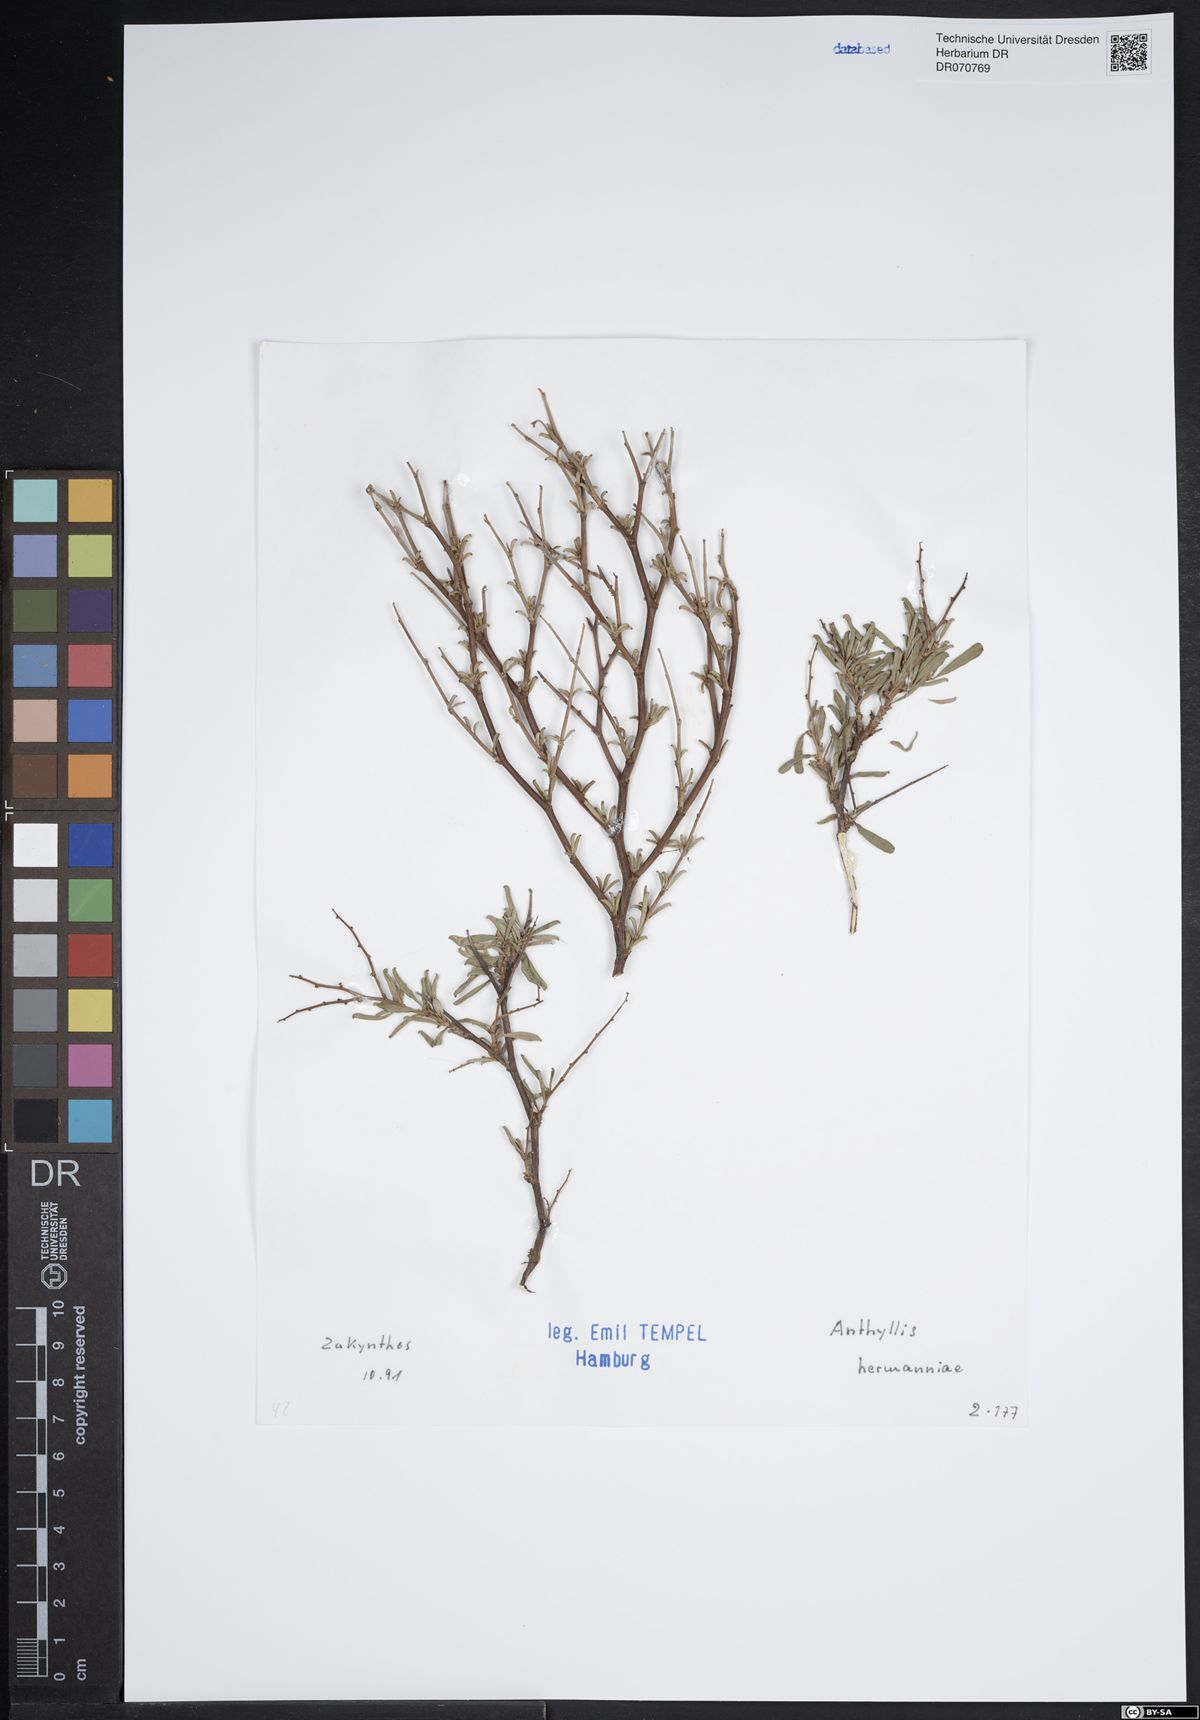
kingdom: Plantae
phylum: Tracheophyta
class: Magnoliopsida
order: Fabales
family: Fabaceae
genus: Anthyllis
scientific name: Anthyllis hermanniae
